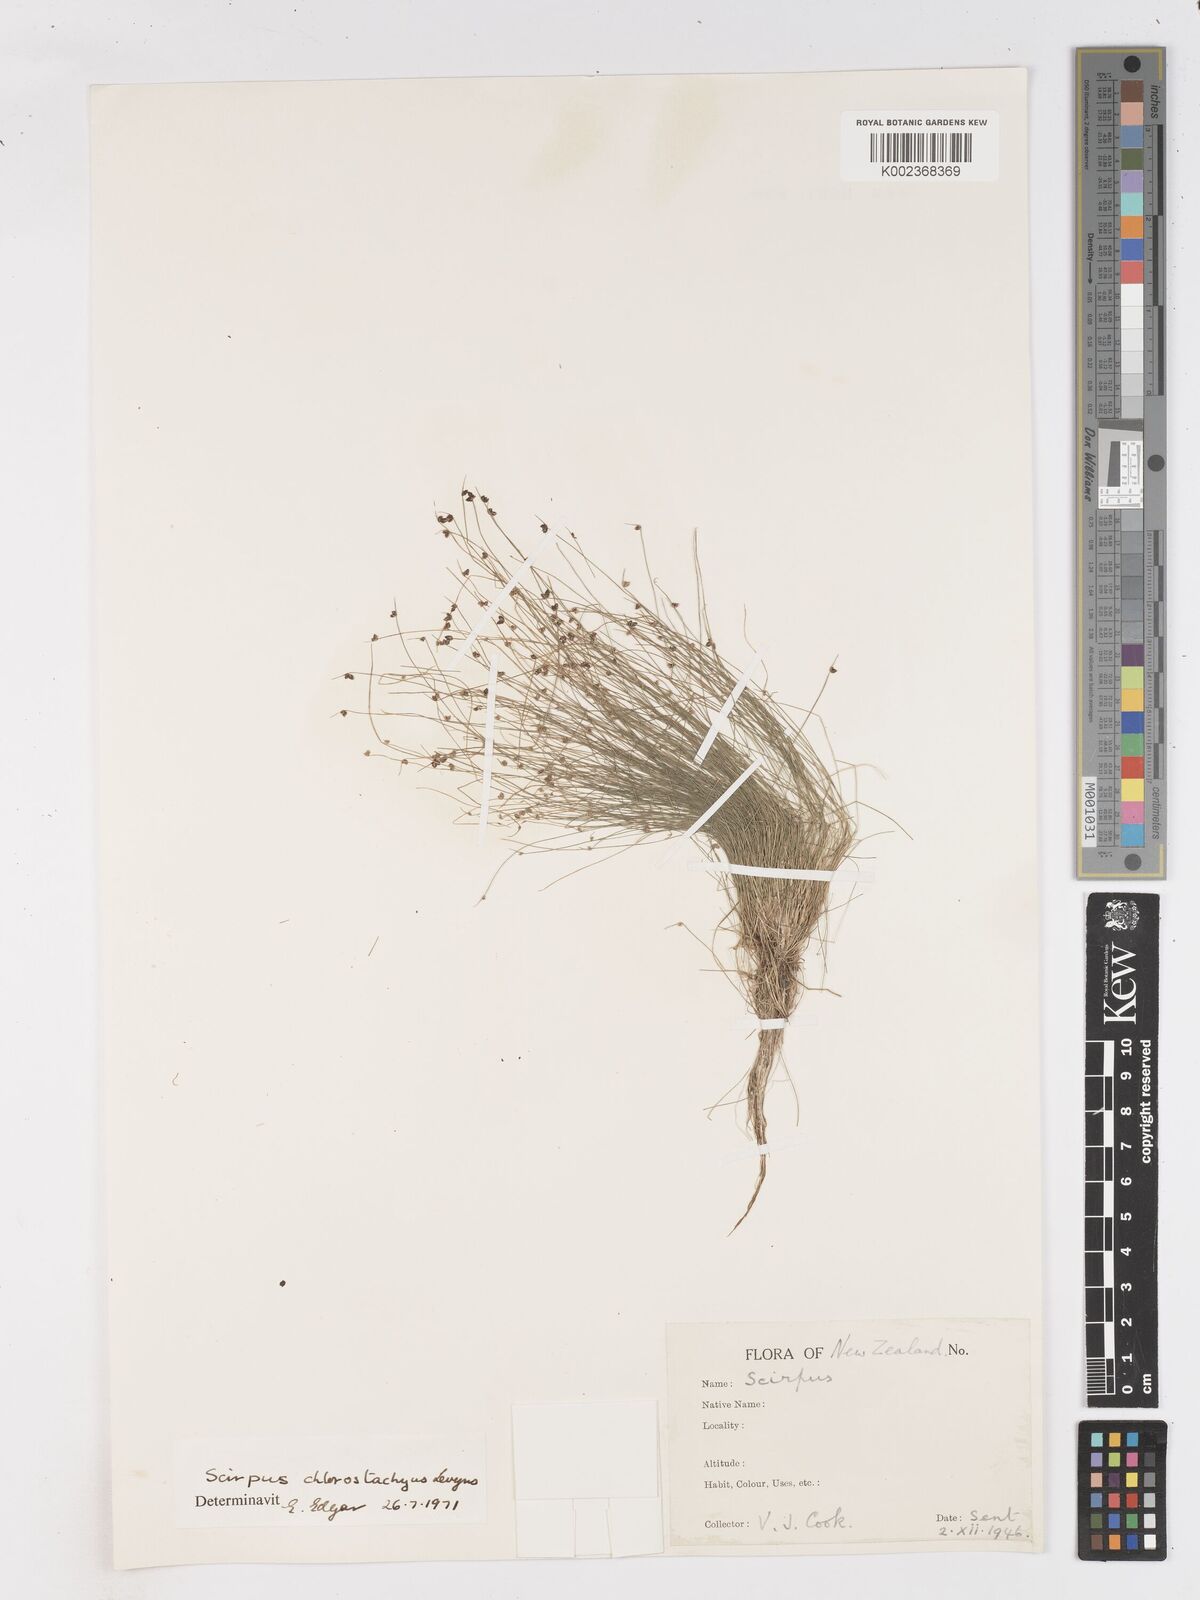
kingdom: Plantae
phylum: Tracheophyta
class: Liliopsida
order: Poales
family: Cyperaceae
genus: Isolepis
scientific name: Isolepis sepulcralis
